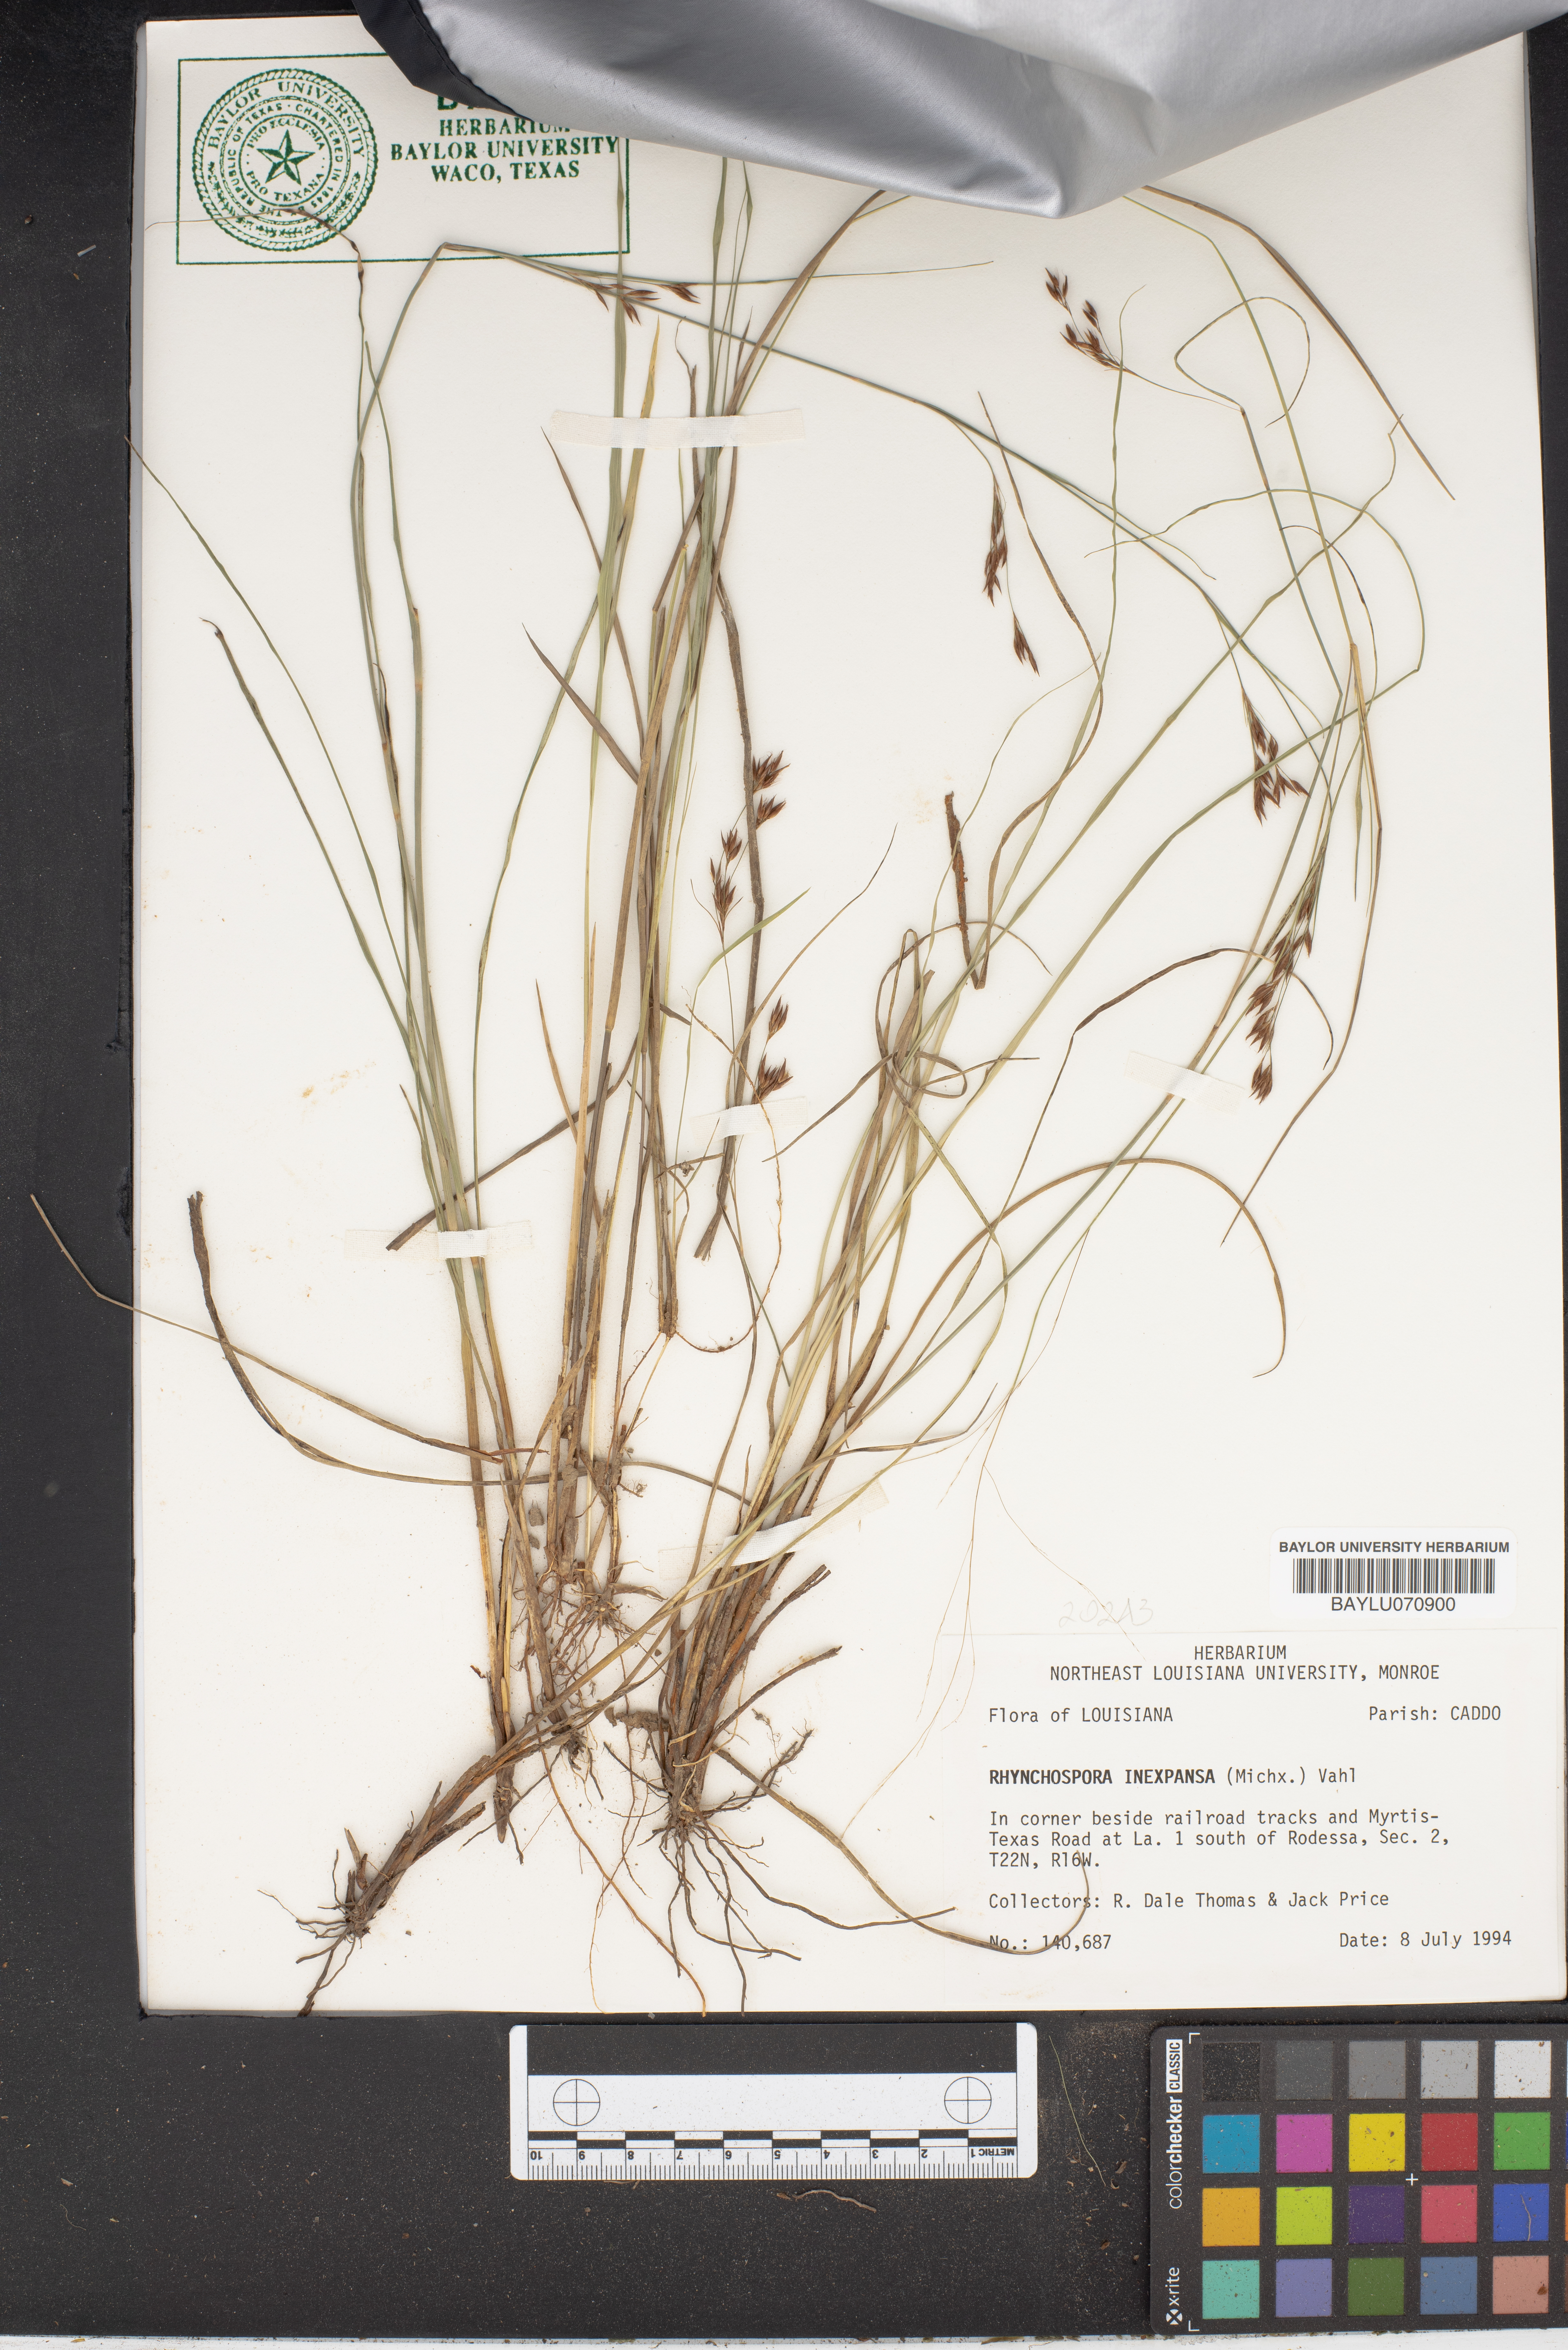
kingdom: Plantae
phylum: Tracheophyta
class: Liliopsida
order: Poales
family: Cyperaceae
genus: Rhynchospora
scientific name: Rhynchospora inexpansa
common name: Nodding beaksedge
